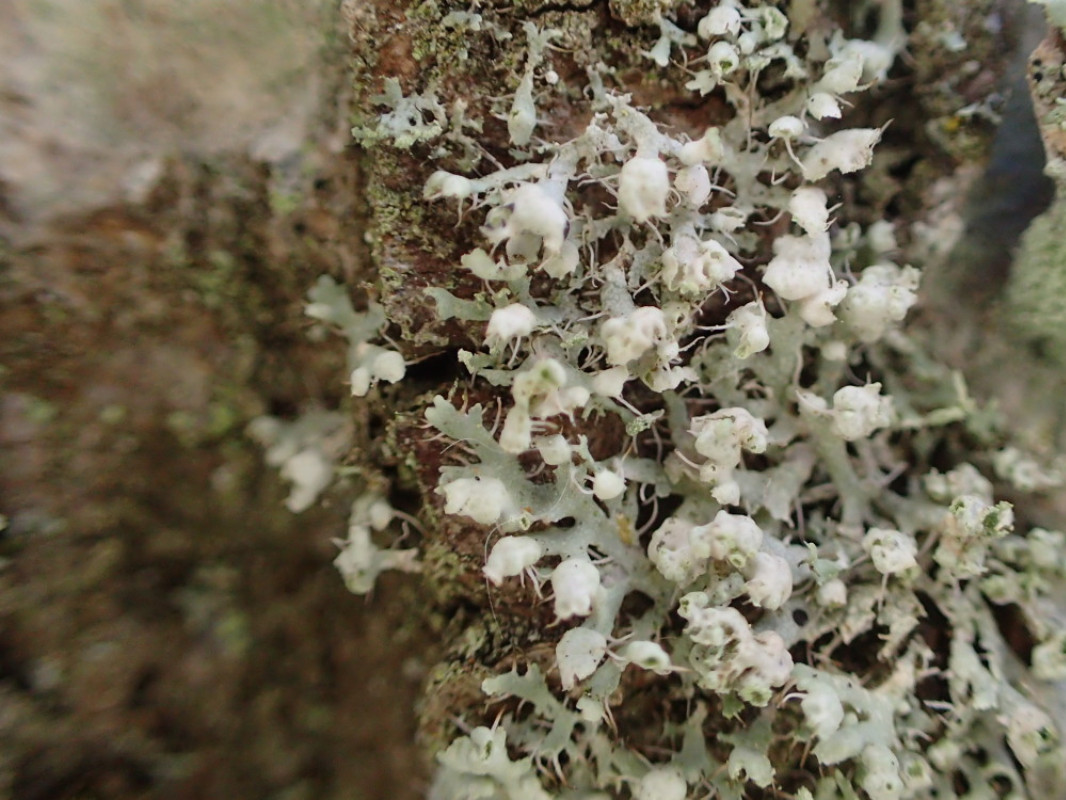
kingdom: Fungi
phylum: Ascomycota
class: Lecanoromycetes
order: Caliciales
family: Physciaceae
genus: Physcia
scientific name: Physcia adscendens
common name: hætte-rosetlav
